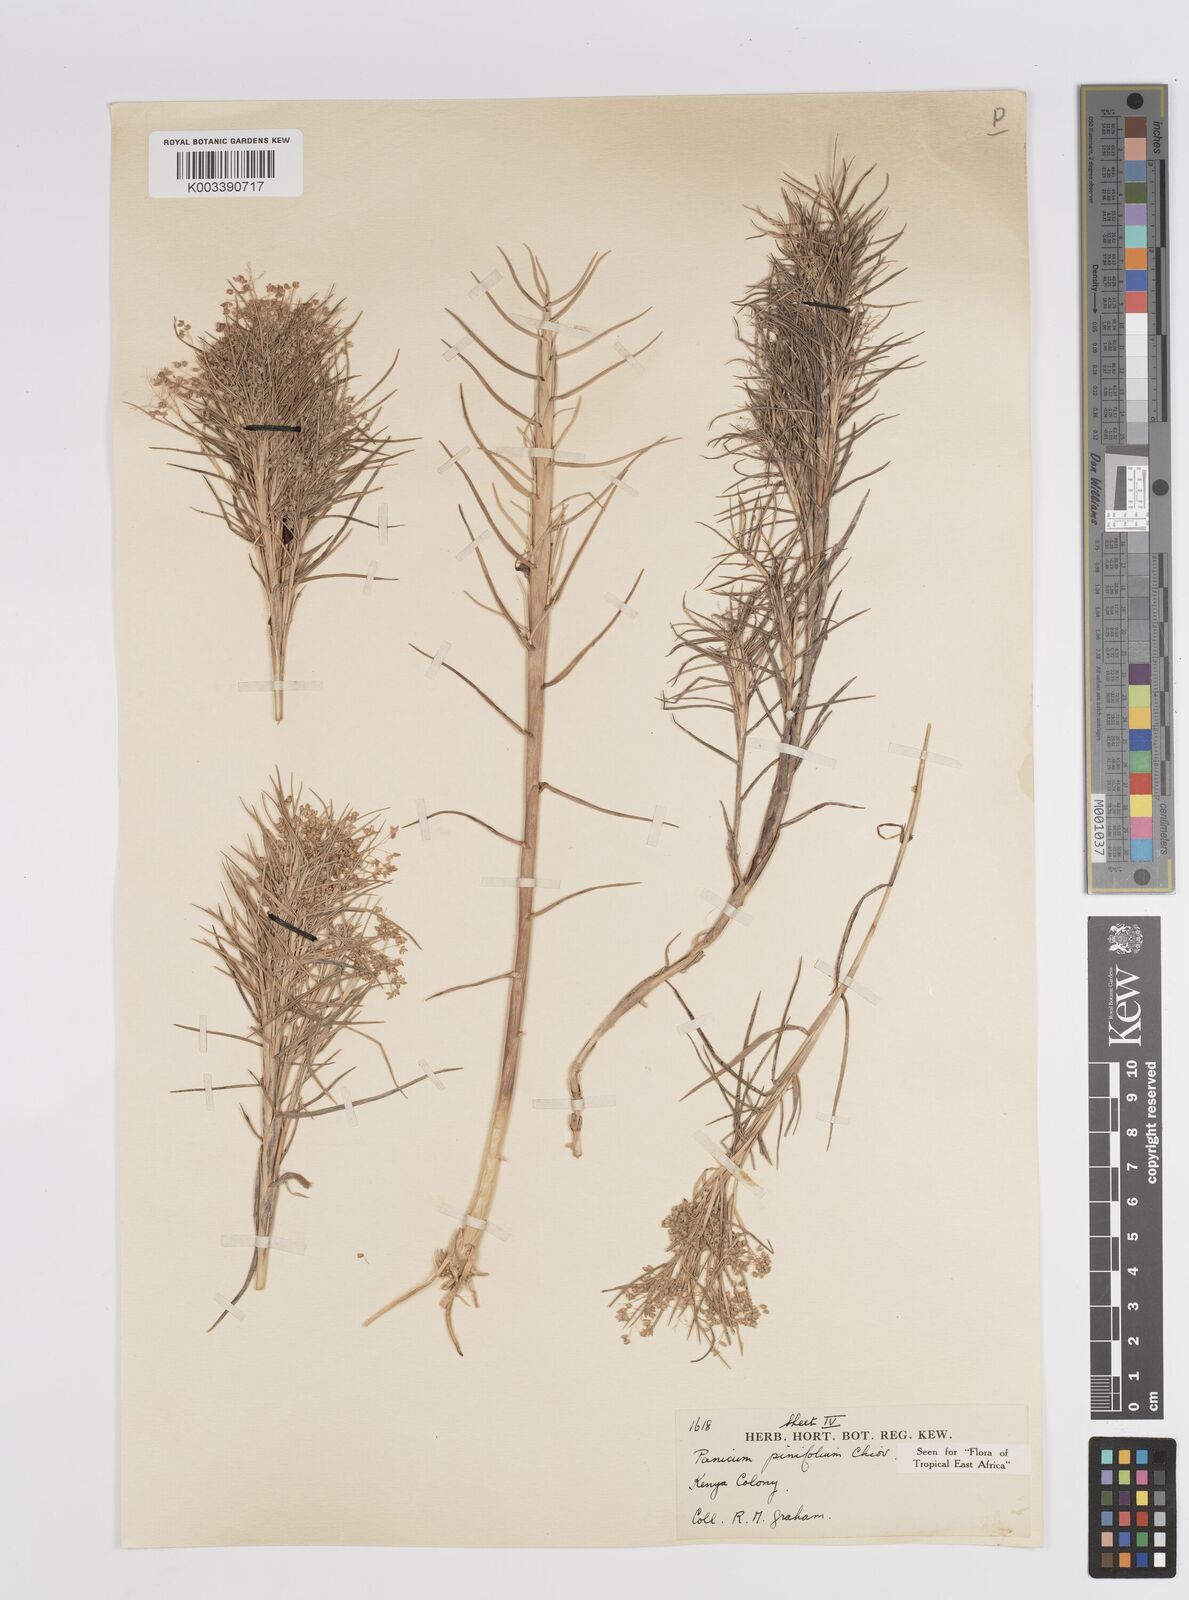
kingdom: Plantae
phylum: Tracheophyta
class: Liliopsida
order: Poales
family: Poaceae
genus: Panicum
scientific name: Panicum pinifolium
